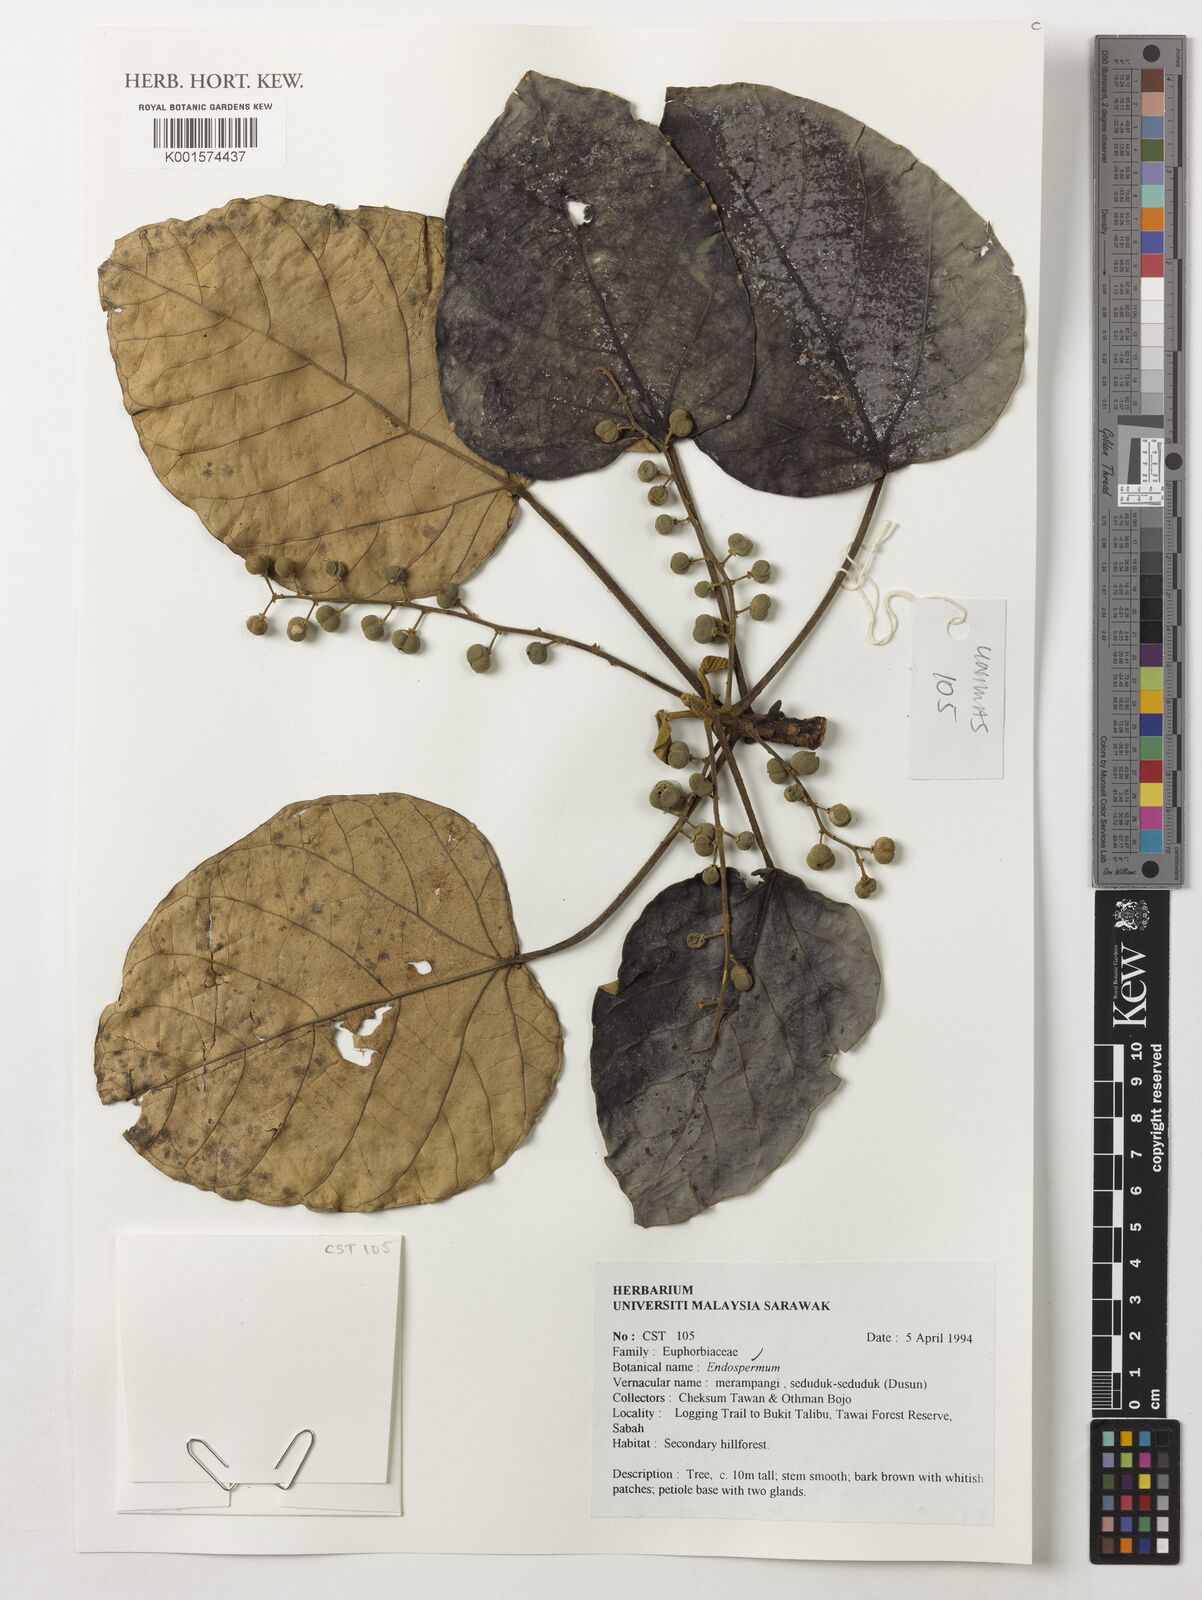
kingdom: Plantae
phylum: Tracheophyta
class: Magnoliopsida
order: Malpighiales
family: Euphorbiaceae
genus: Endospermum
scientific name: Endospermum
